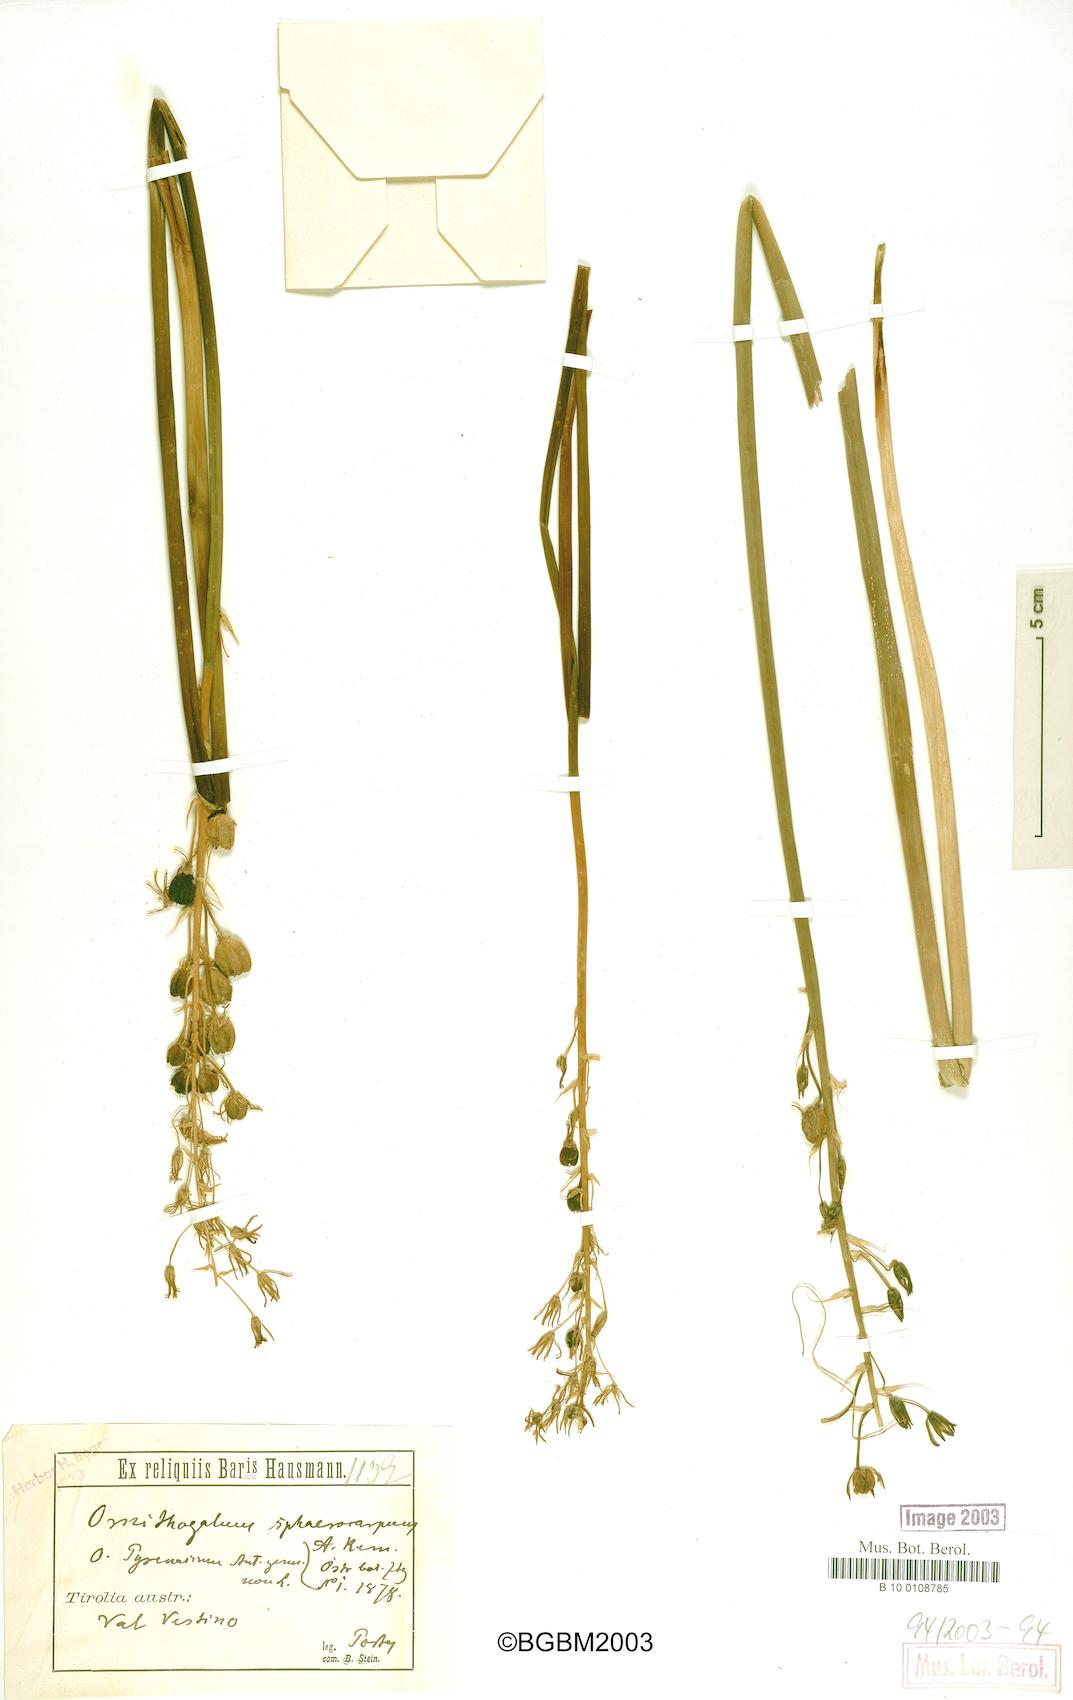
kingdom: Plantae
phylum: Tracheophyta
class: Liliopsida
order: Asparagales
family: Asparagaceae
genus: Ornithogalum
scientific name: Ornithogalum sphaerocarpum
